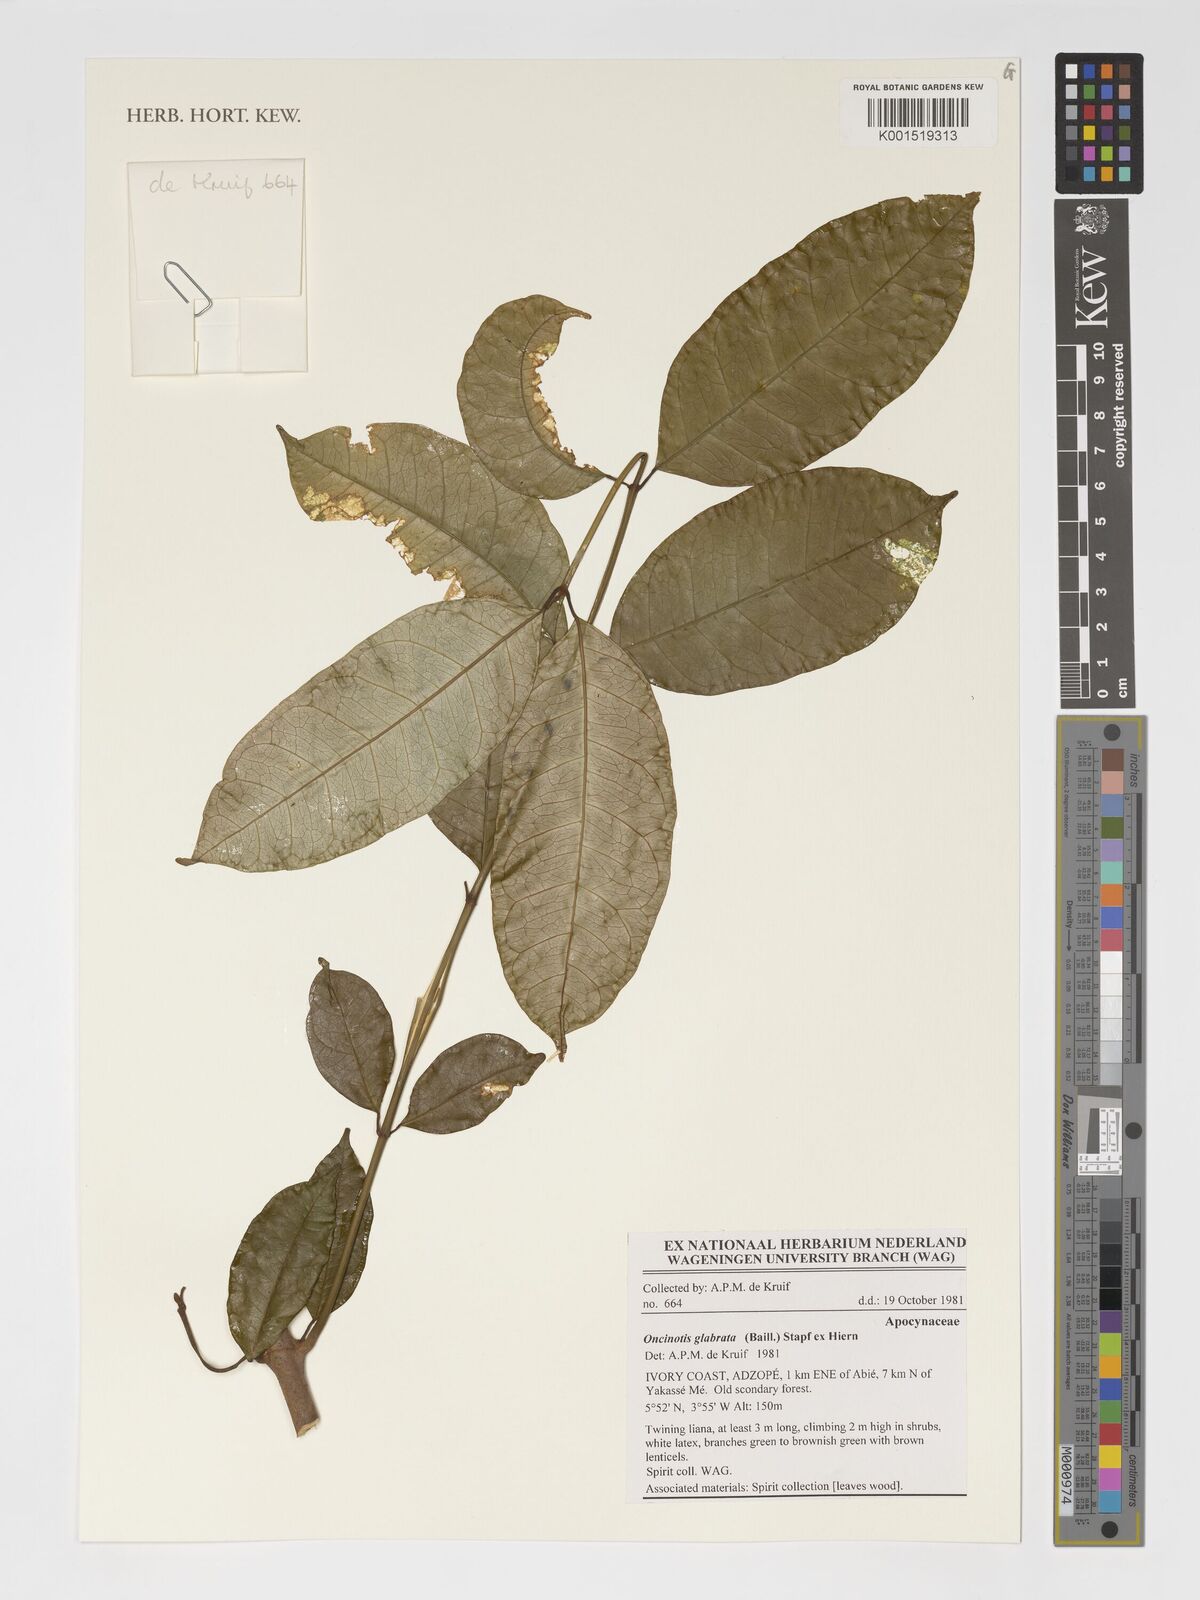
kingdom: Plantae
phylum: Tracheophyta
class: Magnoliopsida
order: Gentianales
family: Apocynaceae
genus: Oncinotis
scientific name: Oncinotis glabrata
